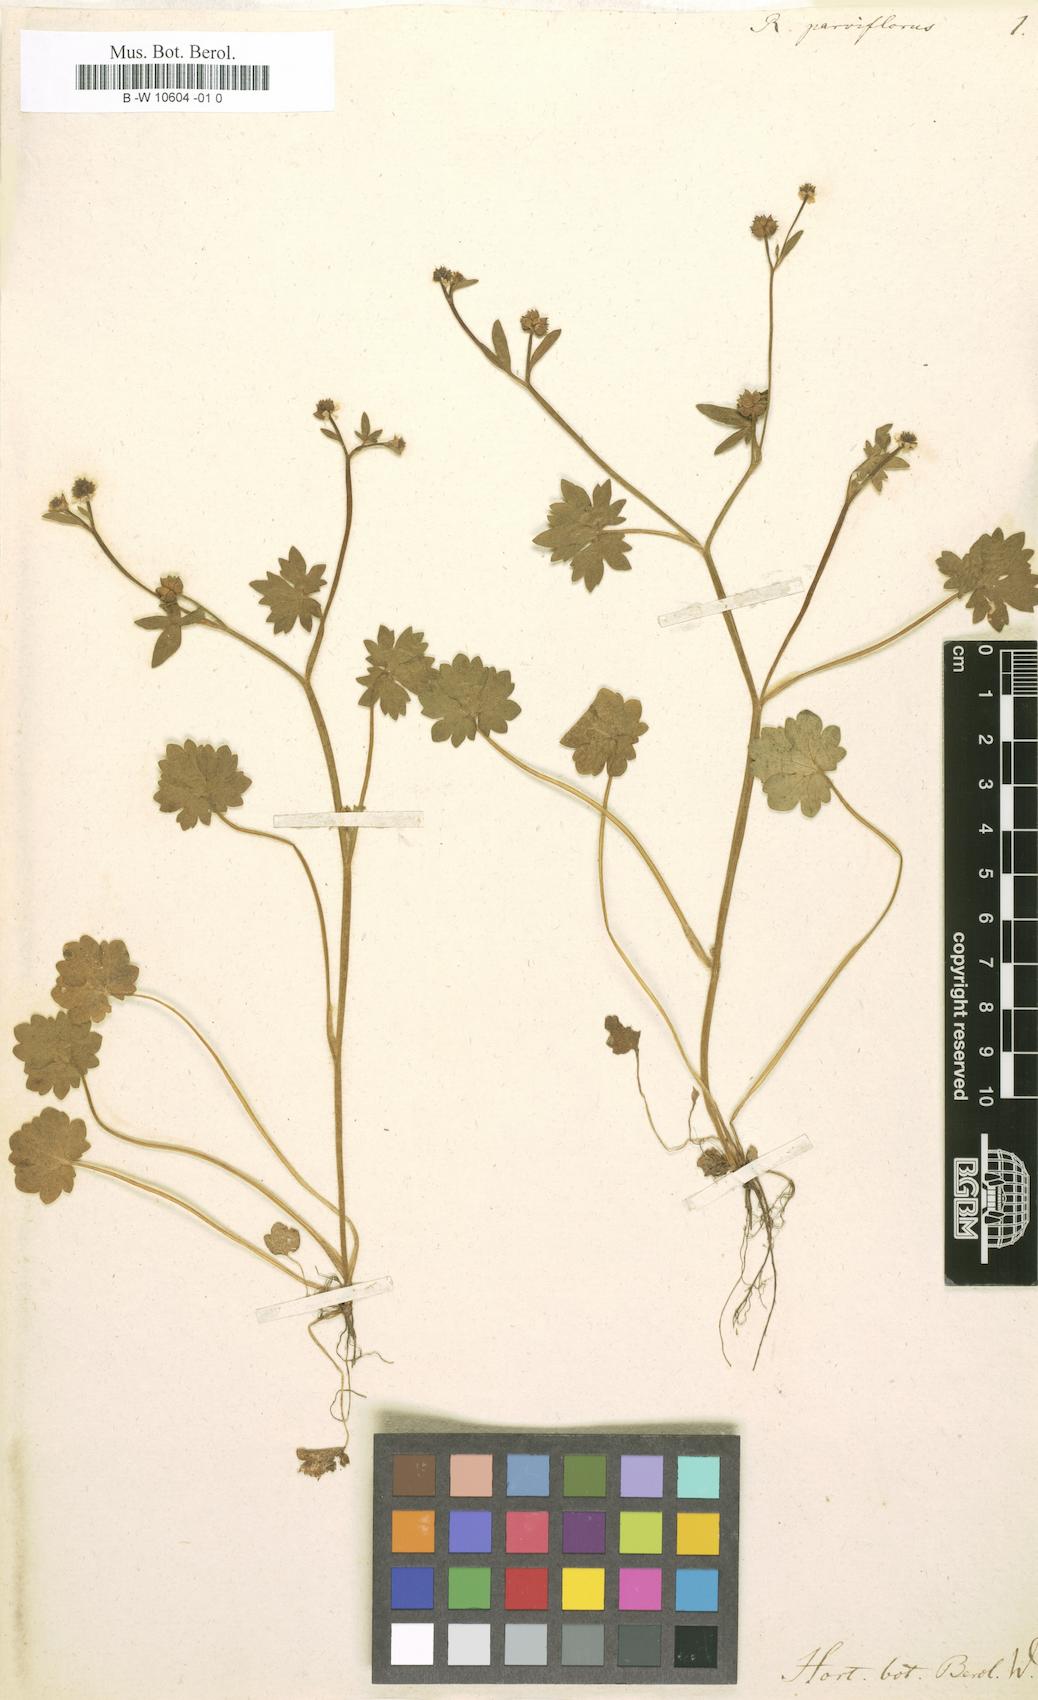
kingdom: Plantae
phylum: Tracheophyta
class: Magnoliopsida
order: Ranunculales
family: Ranunculaceae
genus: Ranunculus
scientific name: Ranunculus parviflorus
